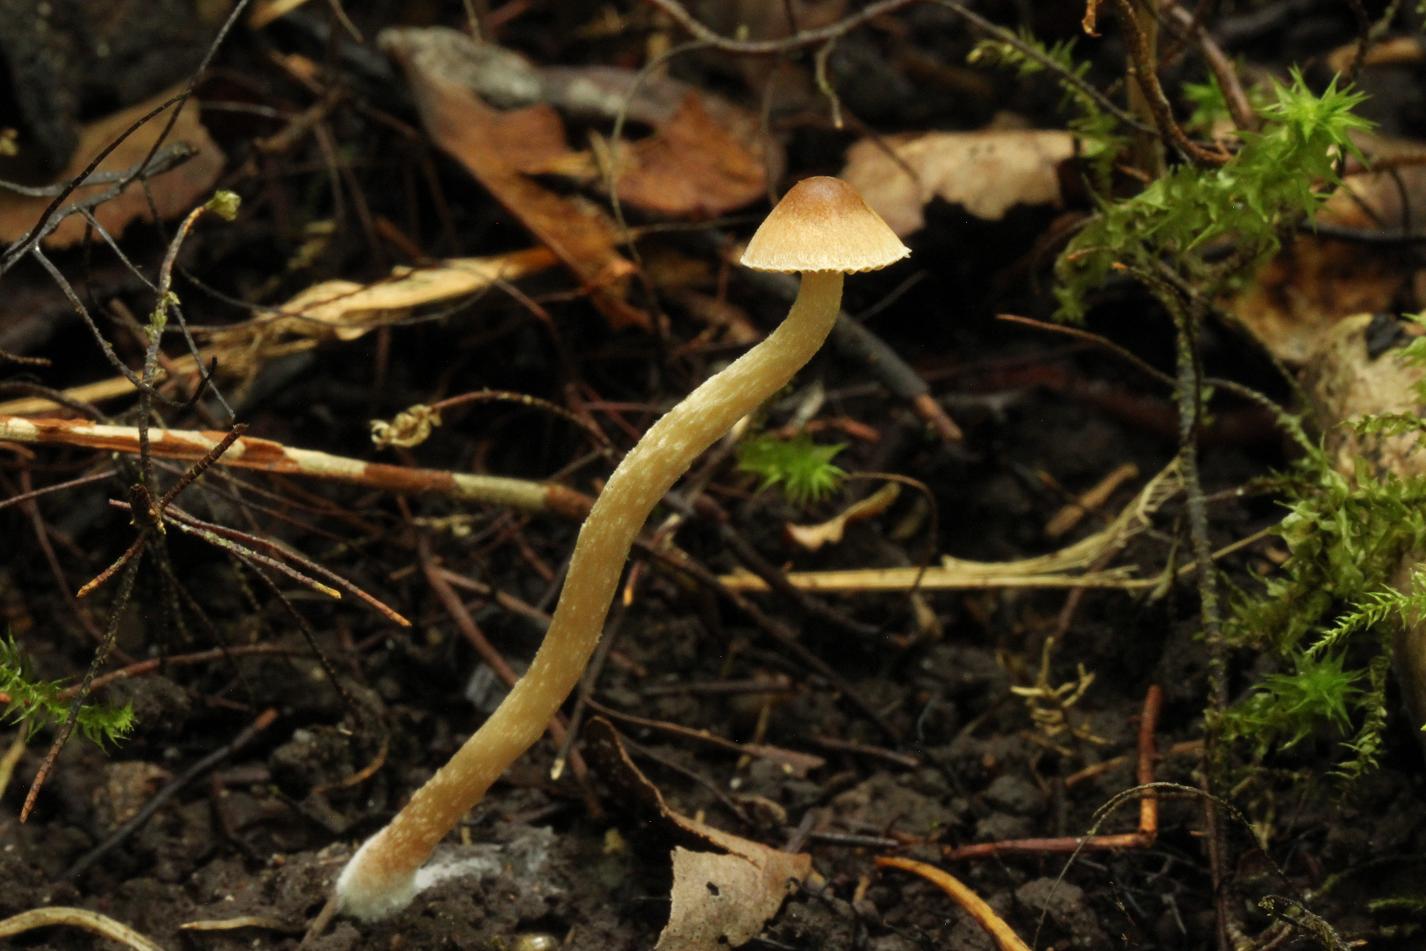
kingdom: Fungi
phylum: Basidiomycota
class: Agaricomycetes
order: Agaricales
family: Psathyrellaceae
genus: Psathyrella
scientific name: Psathyrella panaeoloides
